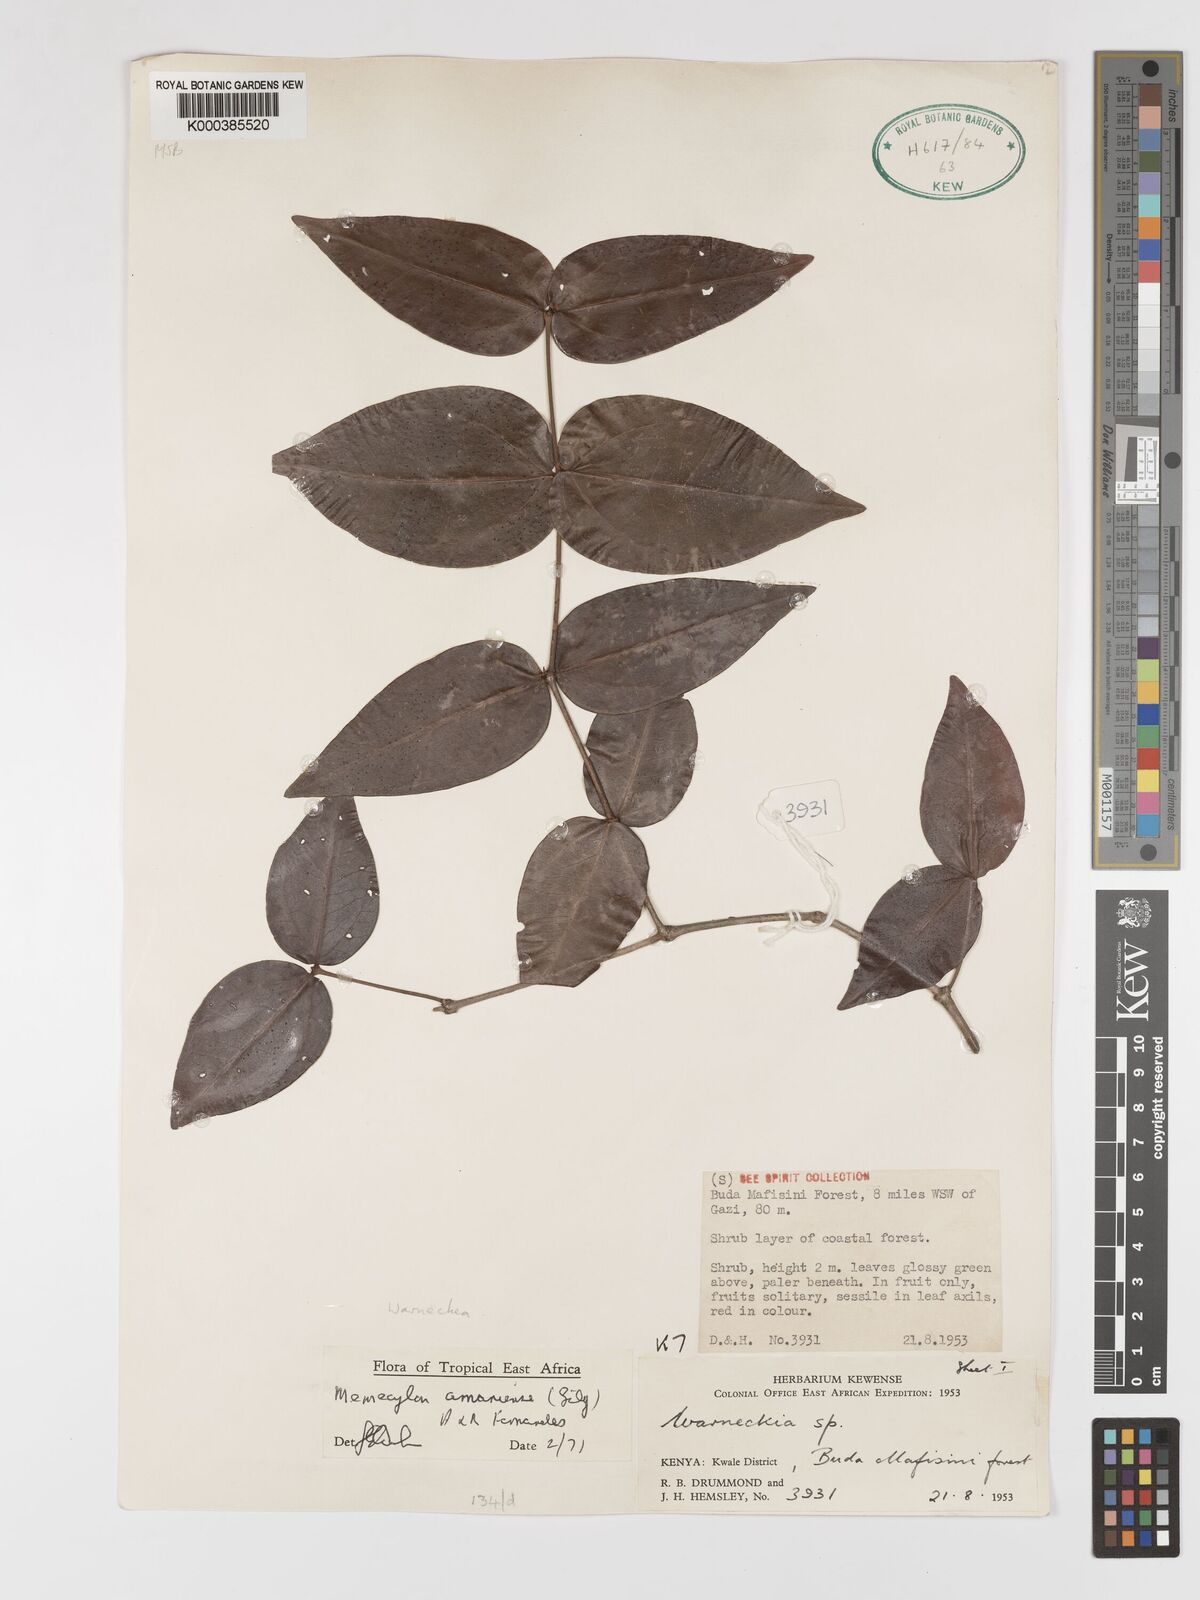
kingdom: Plantae
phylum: Tracheophyta
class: Magnoliopsida
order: Myrtales
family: Melastomataceae
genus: Warneckea
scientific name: Warneckea amaniensis
